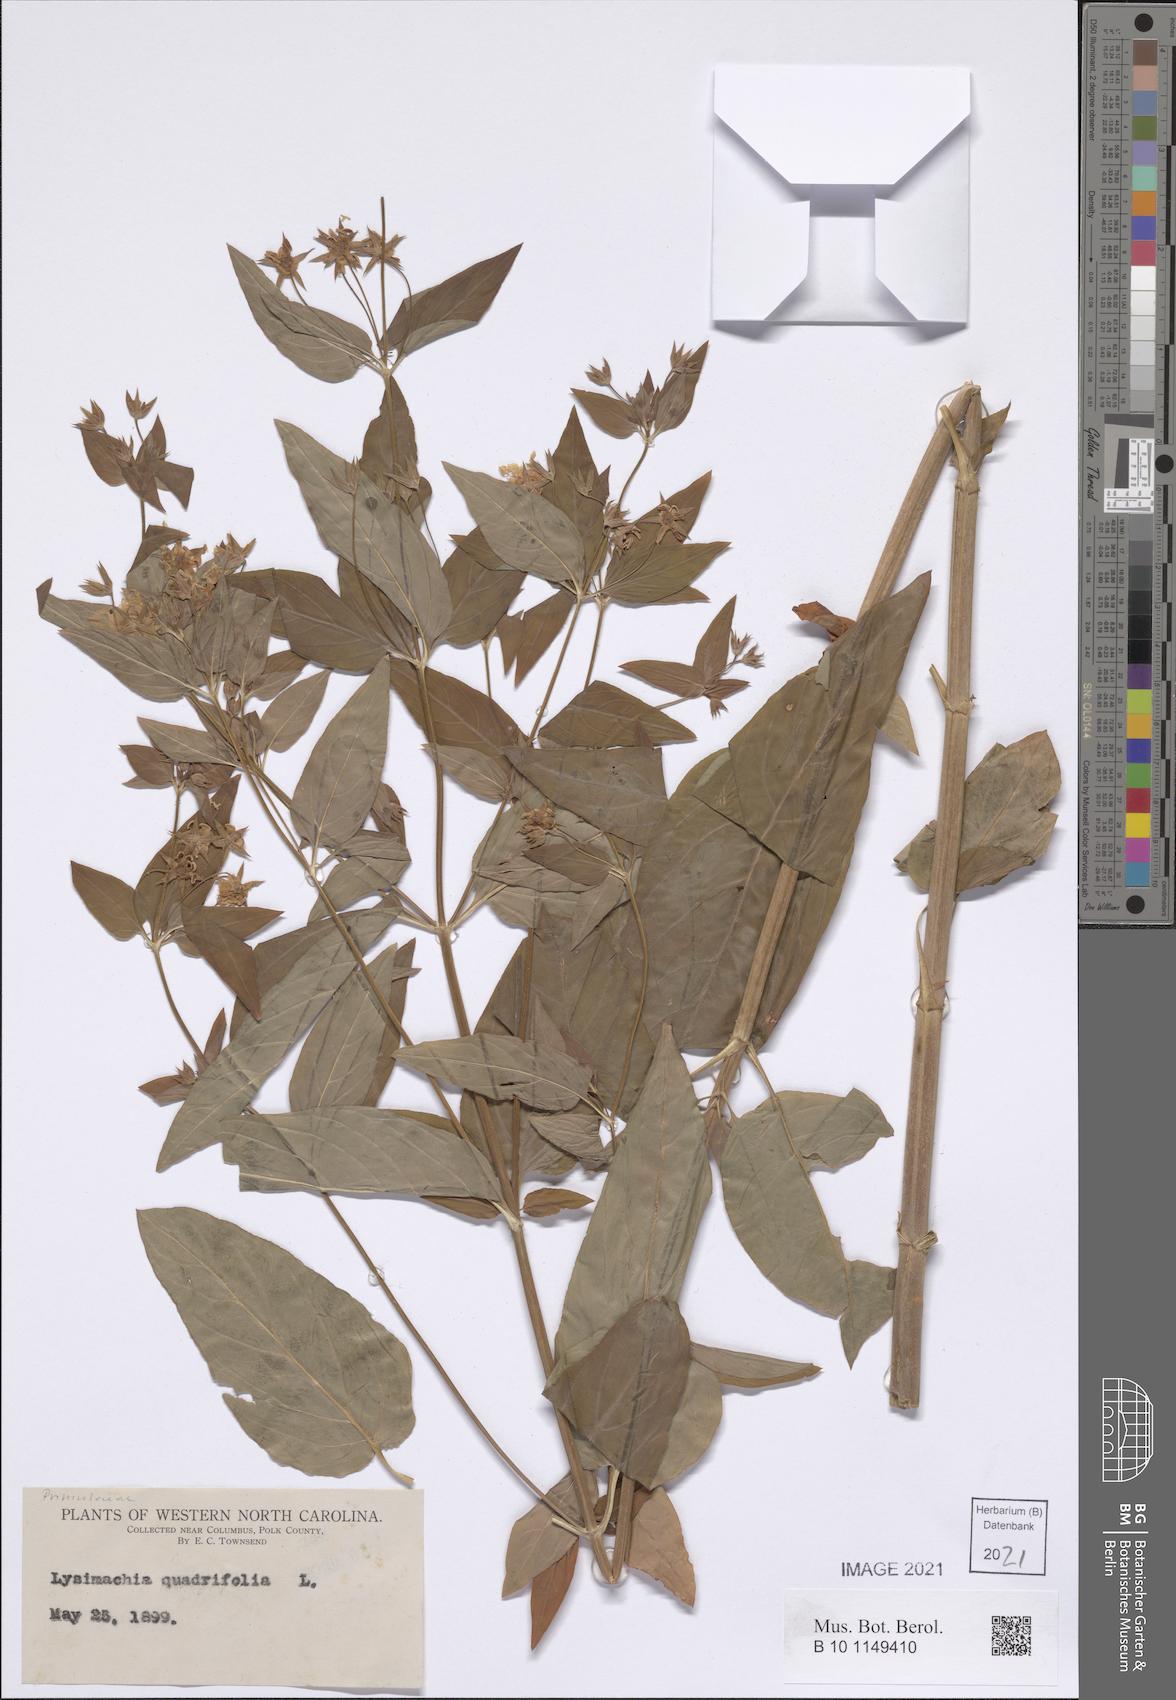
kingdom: Plantae
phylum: Tracheophyta
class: Magnoliopsida
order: Ericales
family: Primulaceae
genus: Lysimachia
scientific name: Lysimachia quadrifolia
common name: Whorled loosestrife
